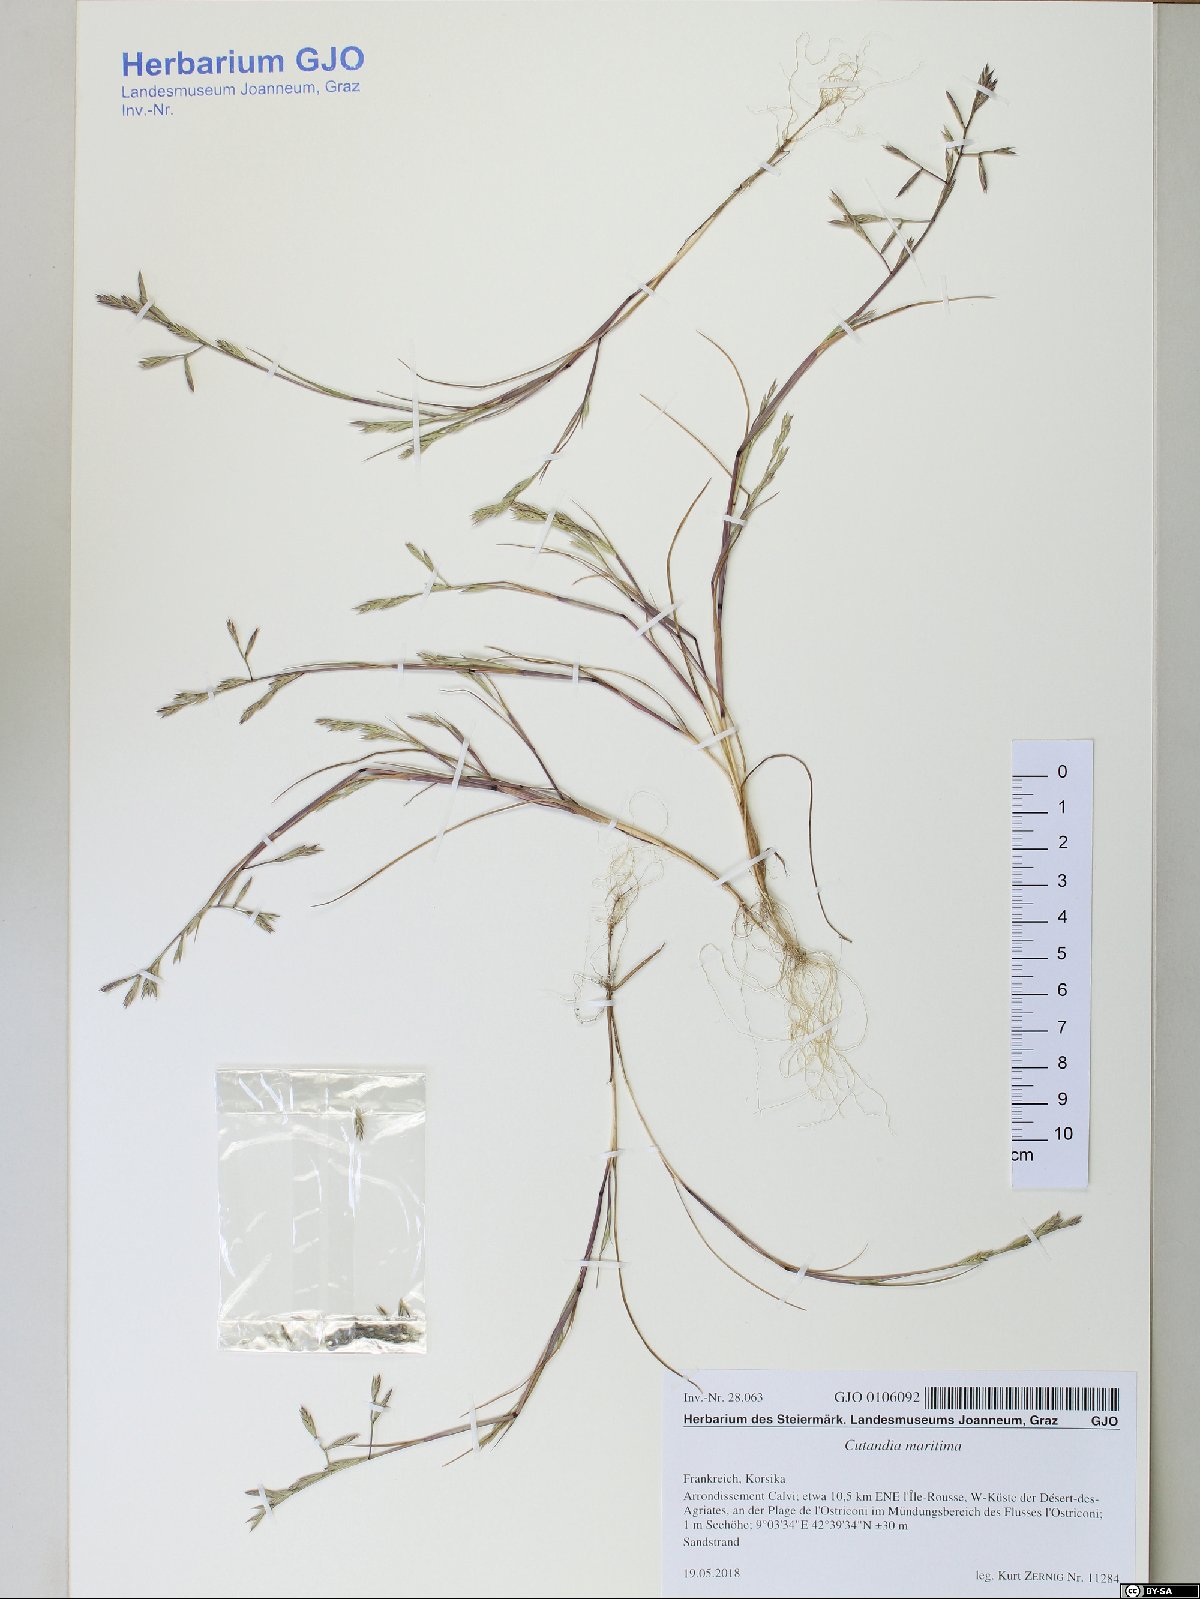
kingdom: Plantae
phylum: Tracheophyta
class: Liliopsida
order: Poales
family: Poaceae
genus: Cutandia
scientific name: Cutandia maritima
